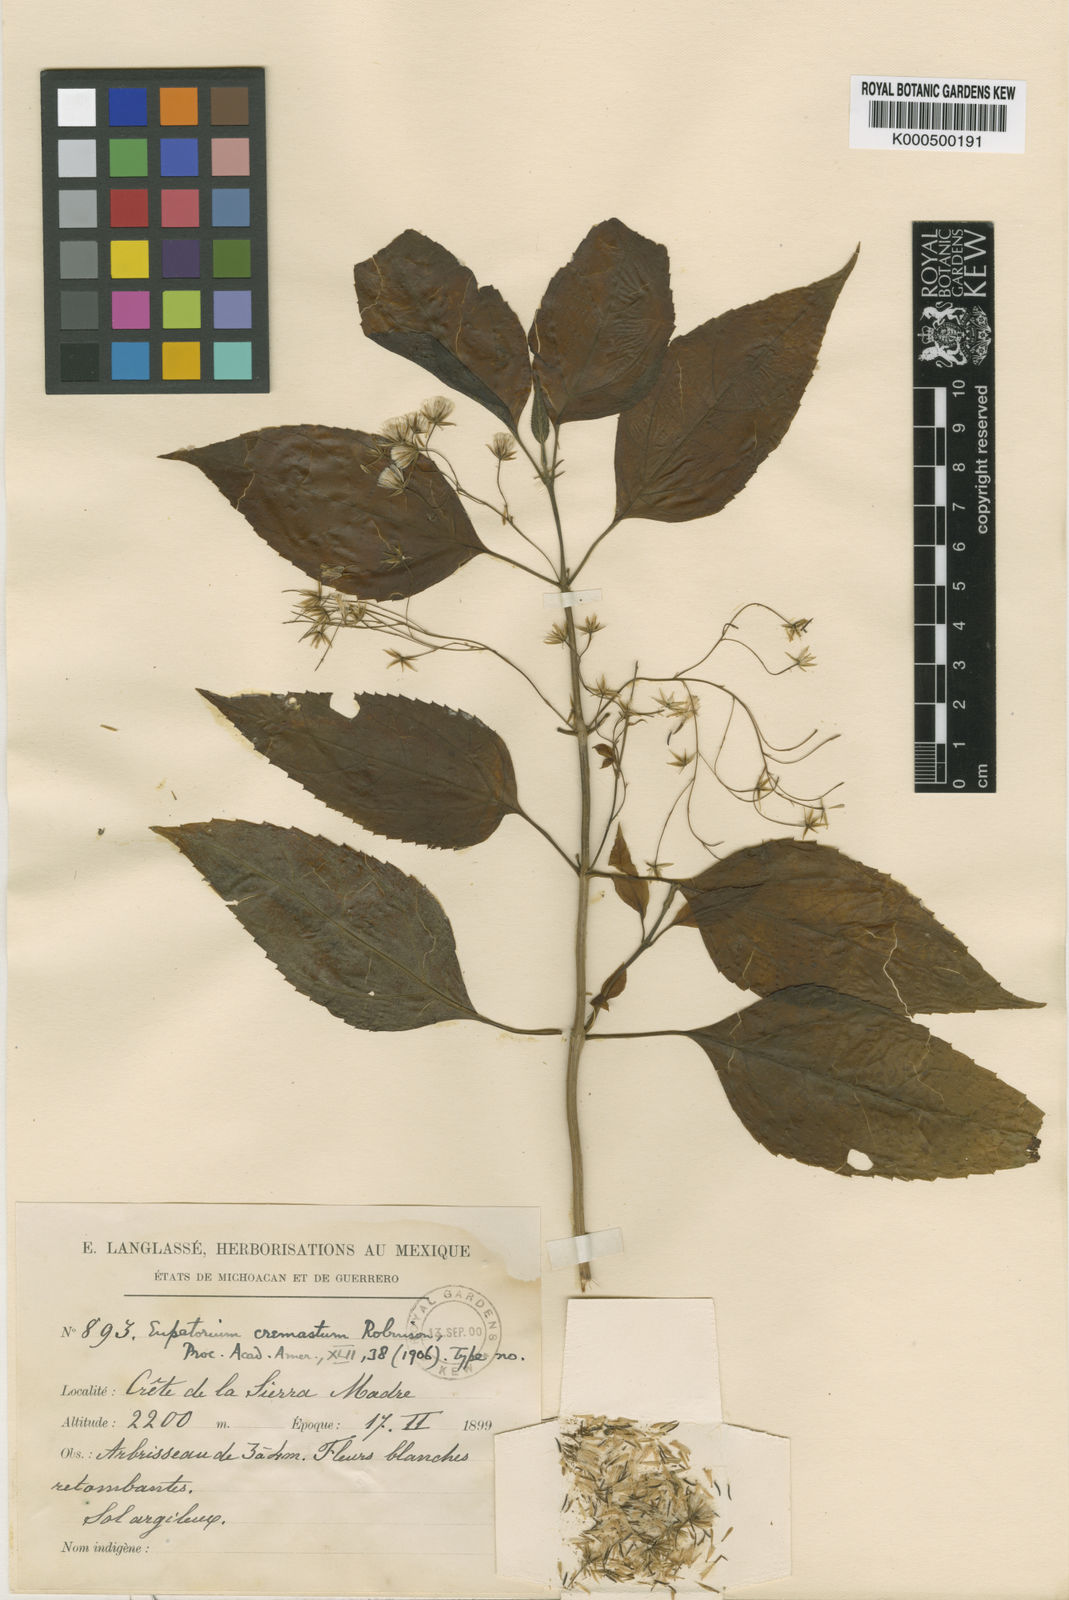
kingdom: Plantae
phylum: Tracheophyta
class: Magnoliopsida
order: Asterales
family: Asteraceae
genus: Ageratina
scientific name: Ageratina cremasta
